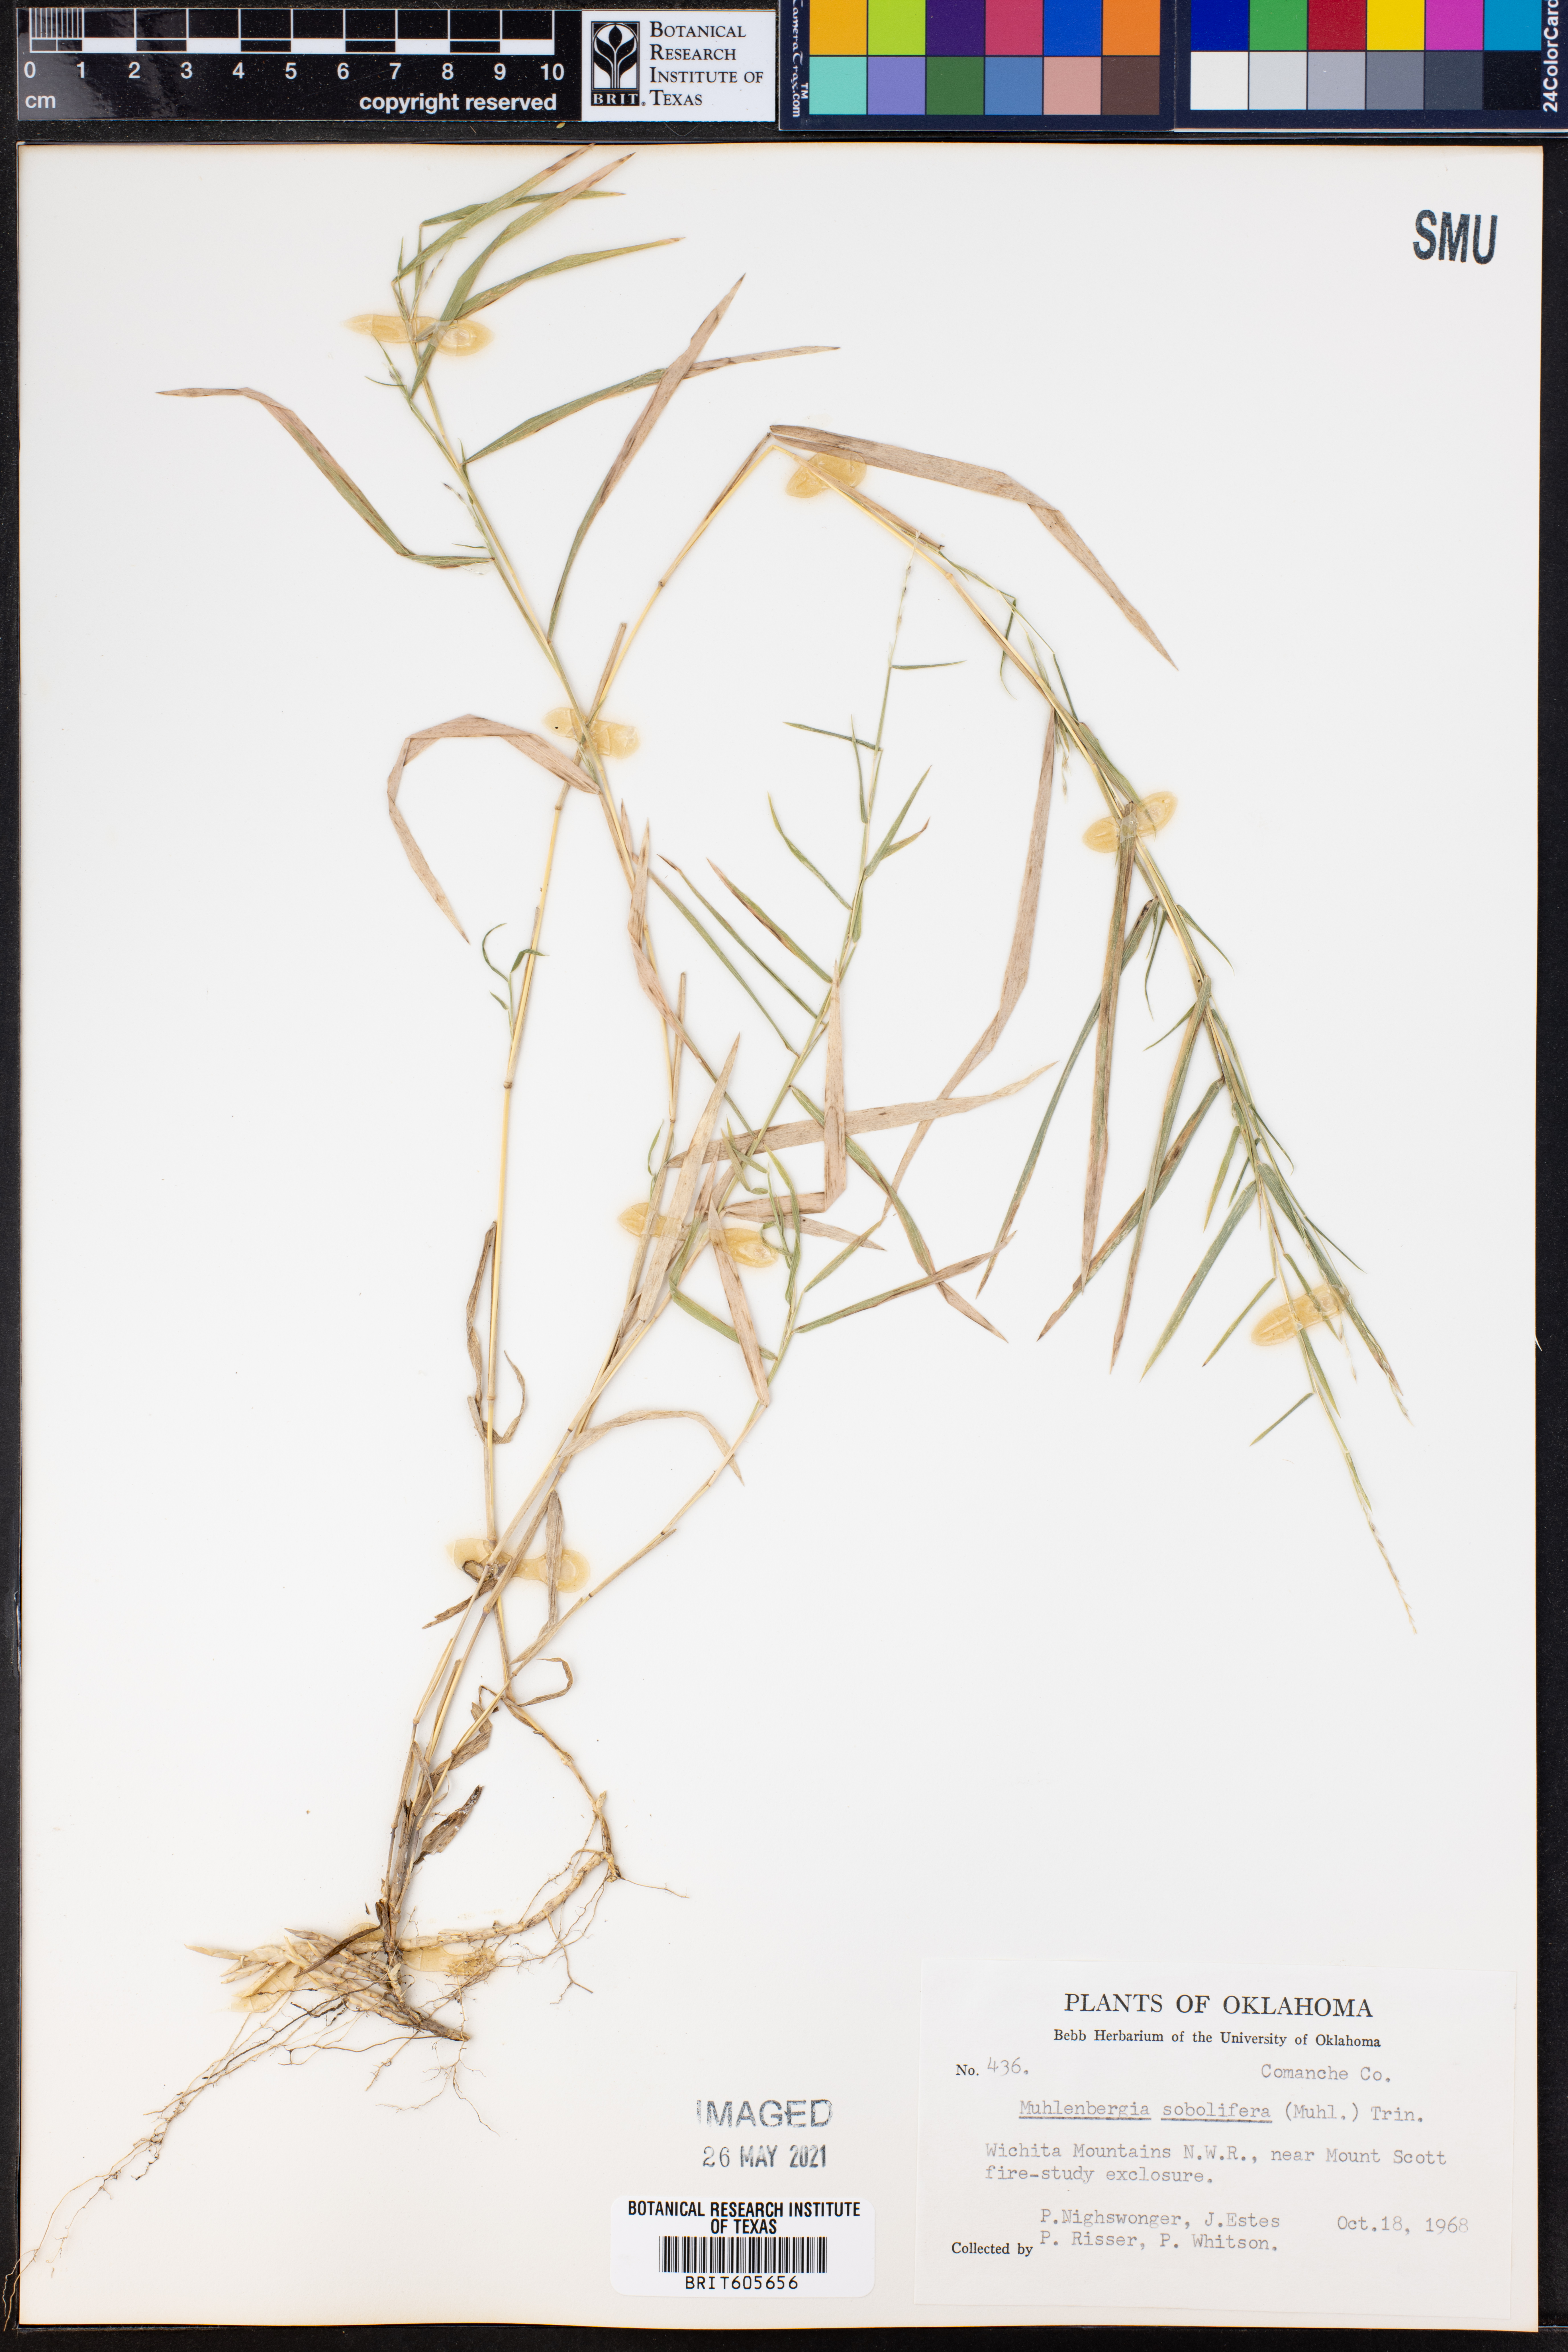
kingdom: Plantae
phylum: Tracheophyta
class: Liliopsida
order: Poales
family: Poaceae
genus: Muhlenbergia
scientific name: Muhlenbergia sobolifera
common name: Creeping muhly
